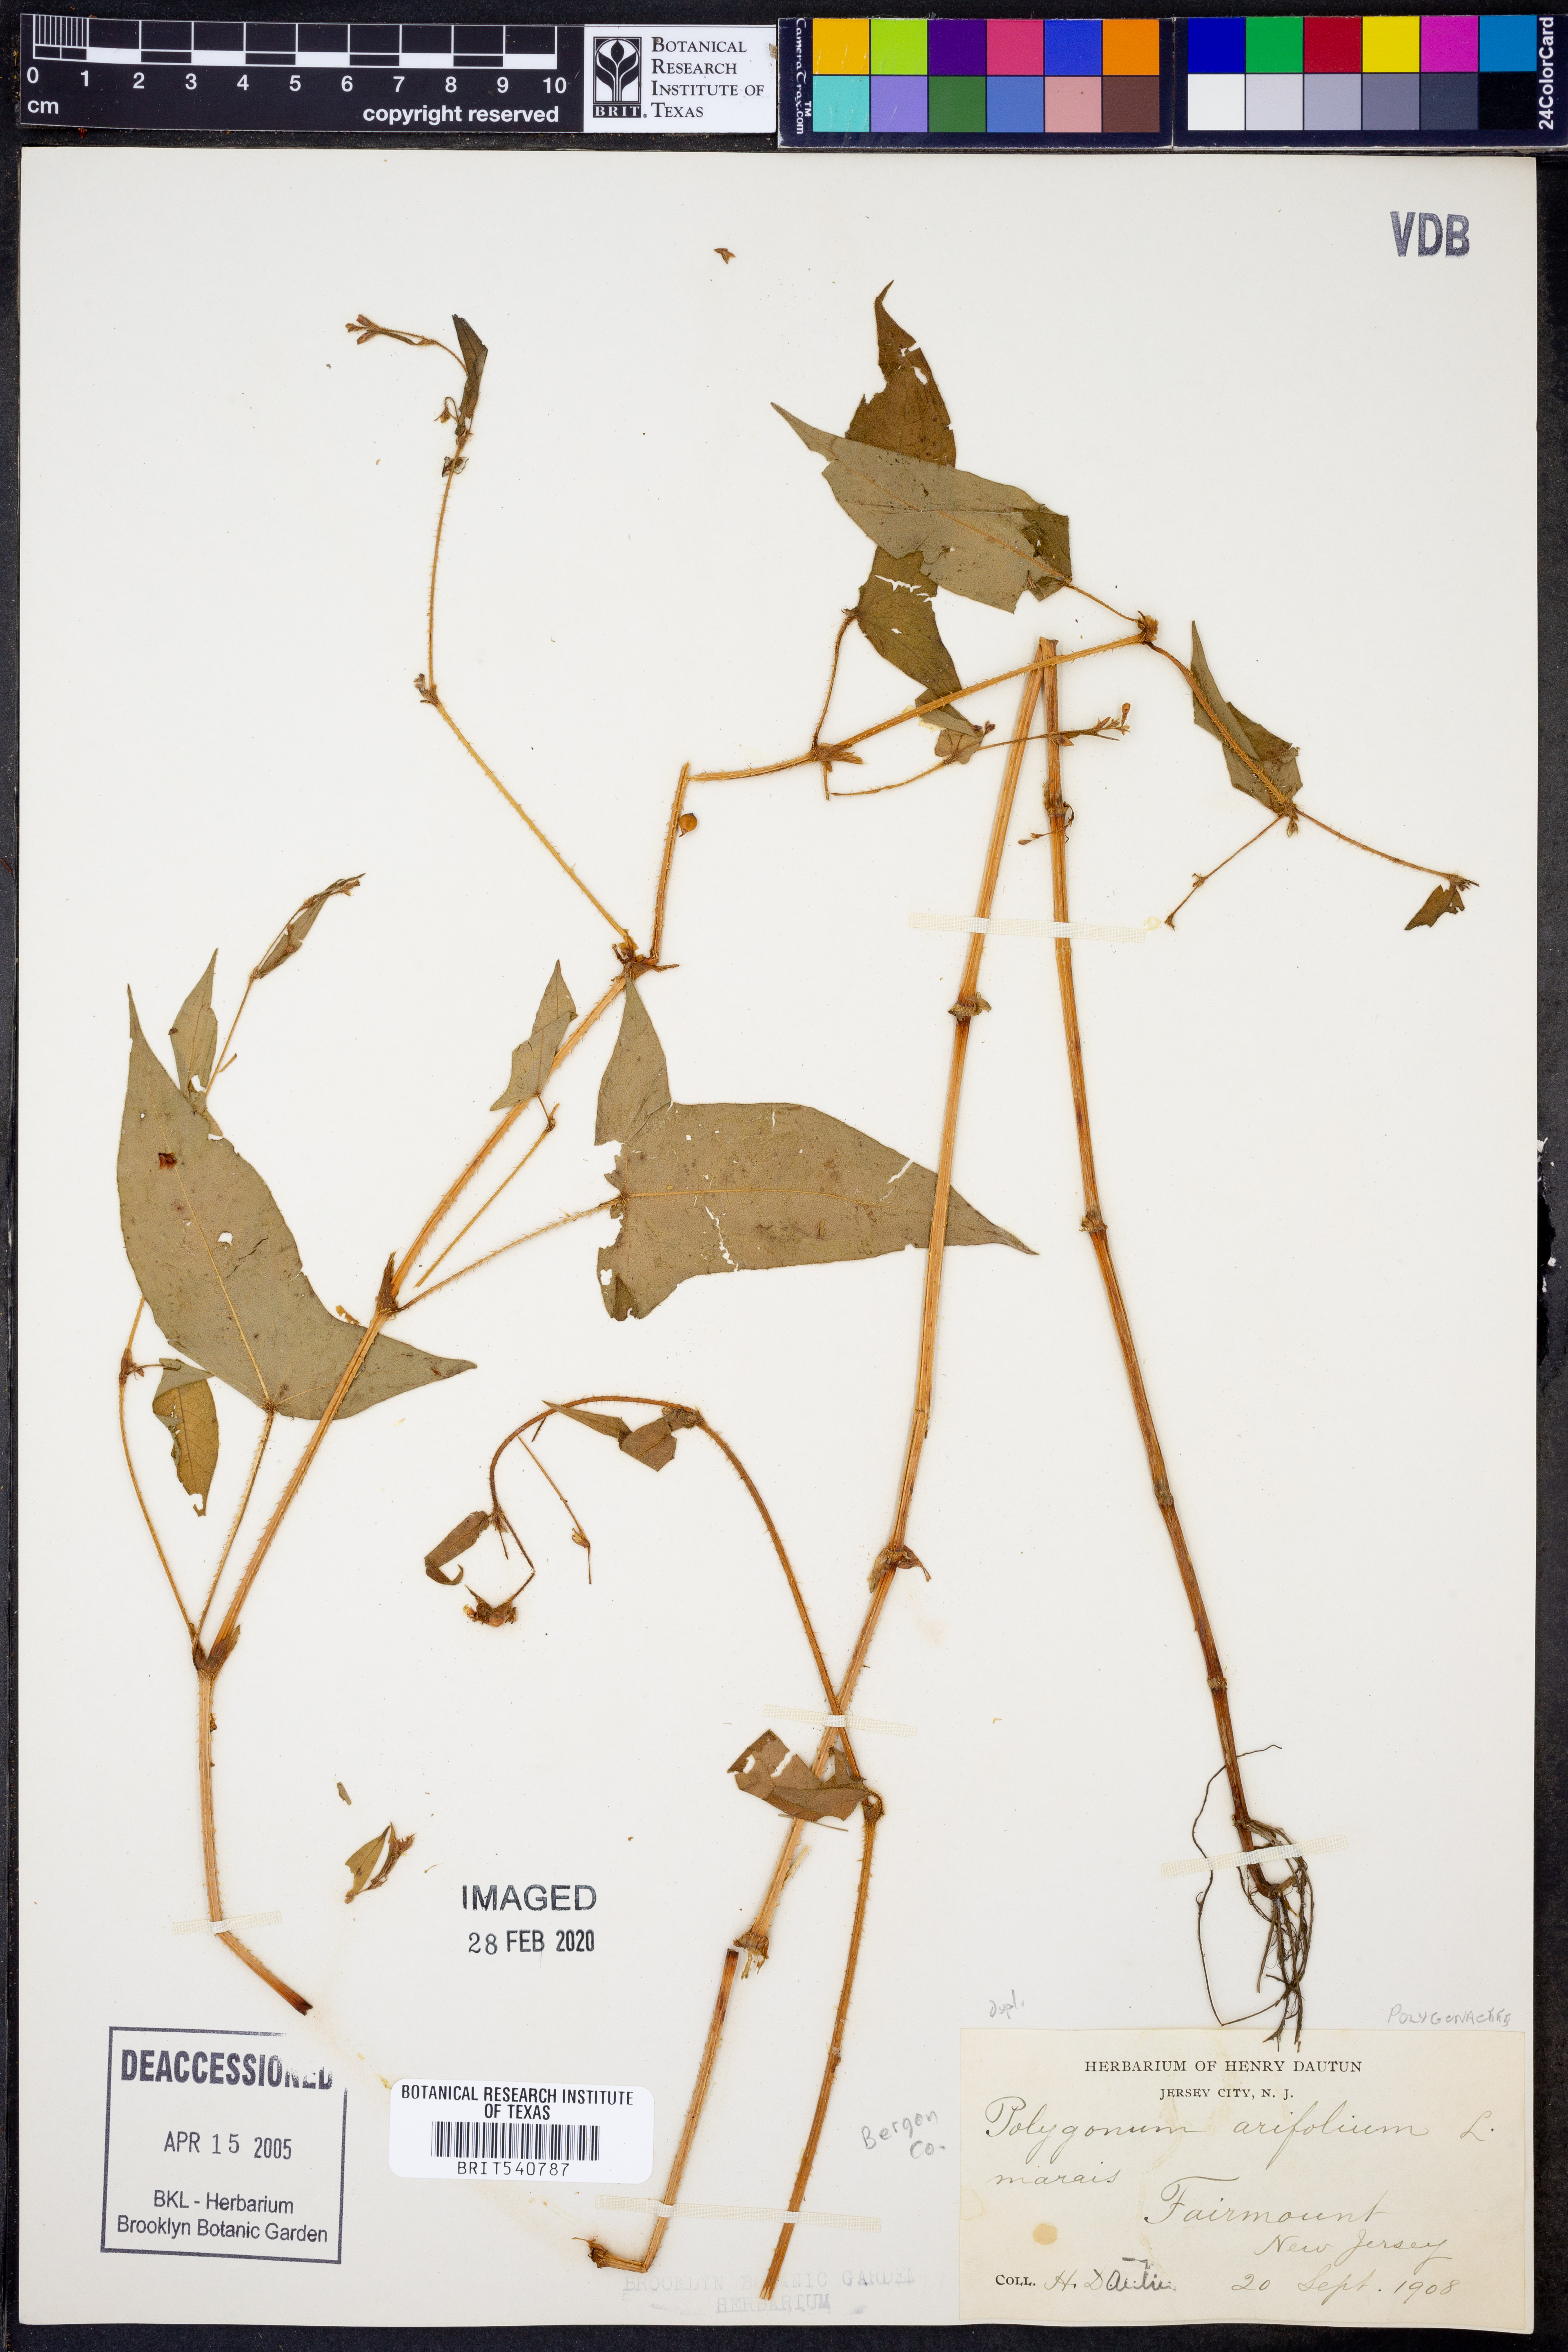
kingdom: Plantae
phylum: Tracheophyta
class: Magnoliopsida
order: Caryophyllales
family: Polygonaceae
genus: Persicaria
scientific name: Persicaria arifolia
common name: Halberd-leaved tear-thumb
